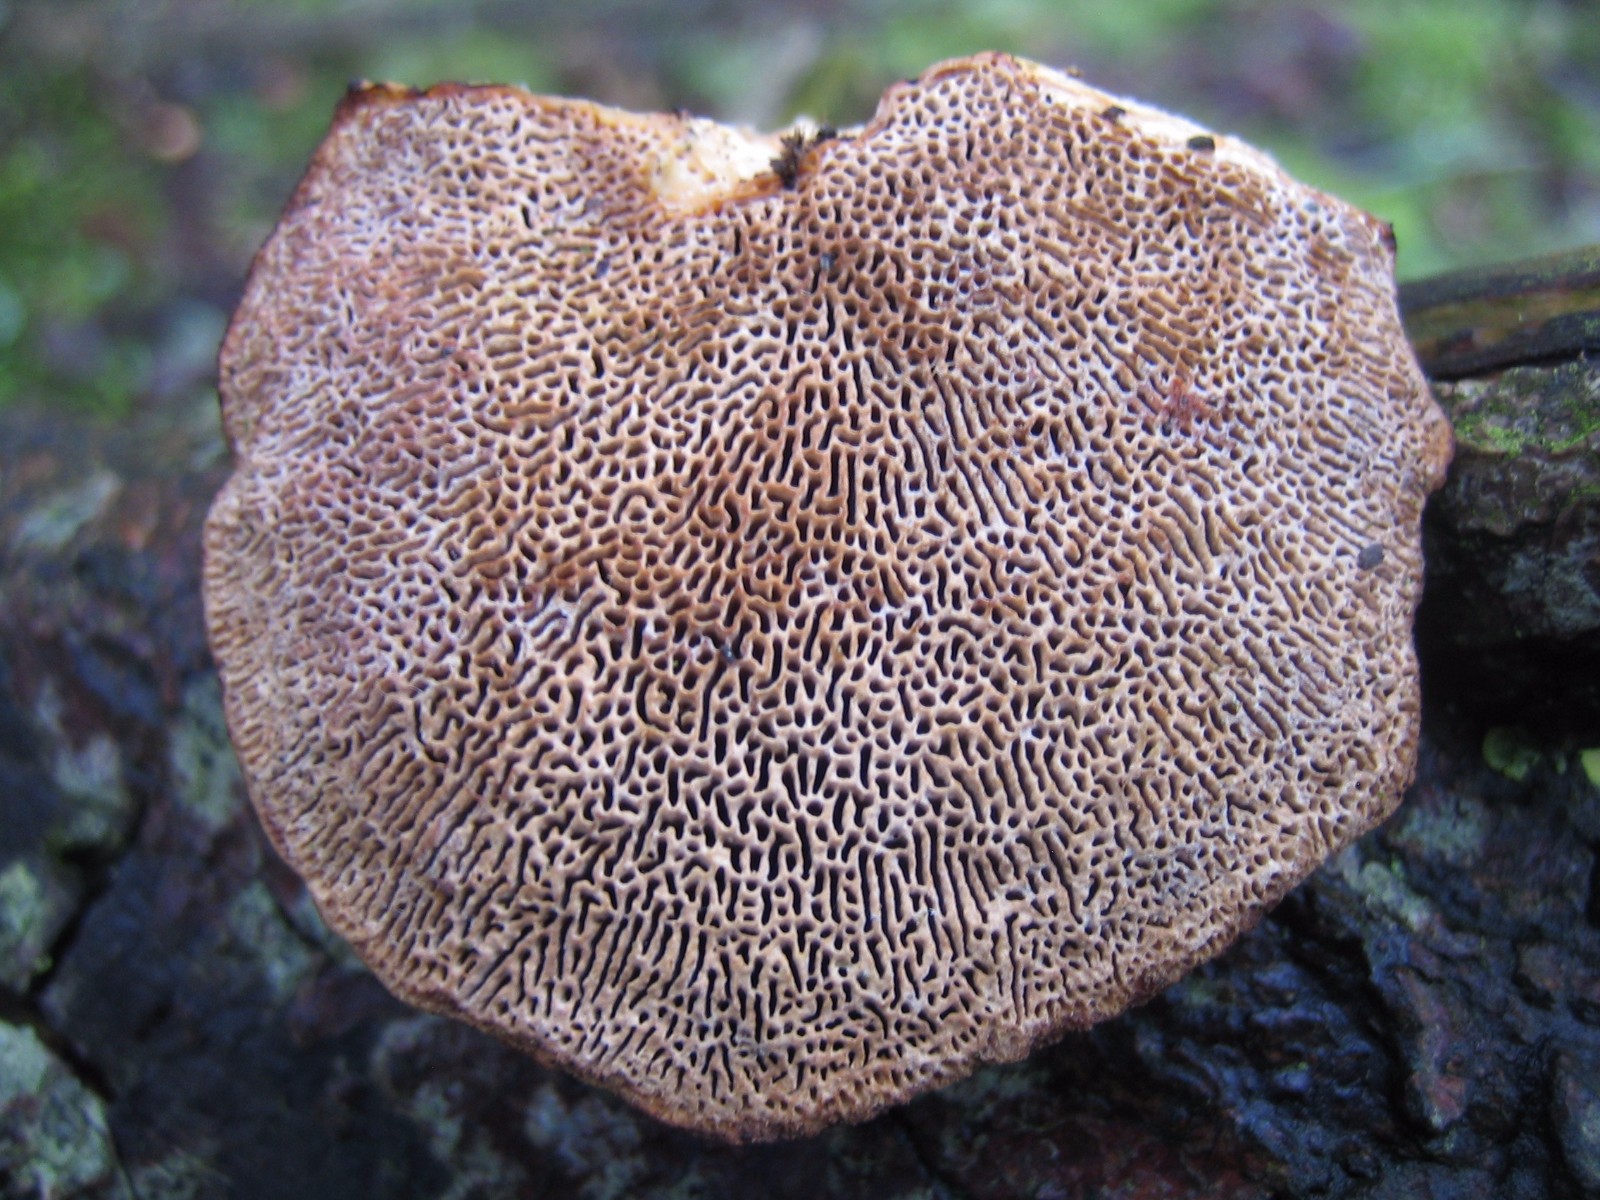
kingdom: Fungi
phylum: Basidiomycota
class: Agaricomycetes
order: Polyporales
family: Polyporaceae
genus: Daedaleopsis
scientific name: Daedaleopsis confragosa
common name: rødmende læderporesvamp
